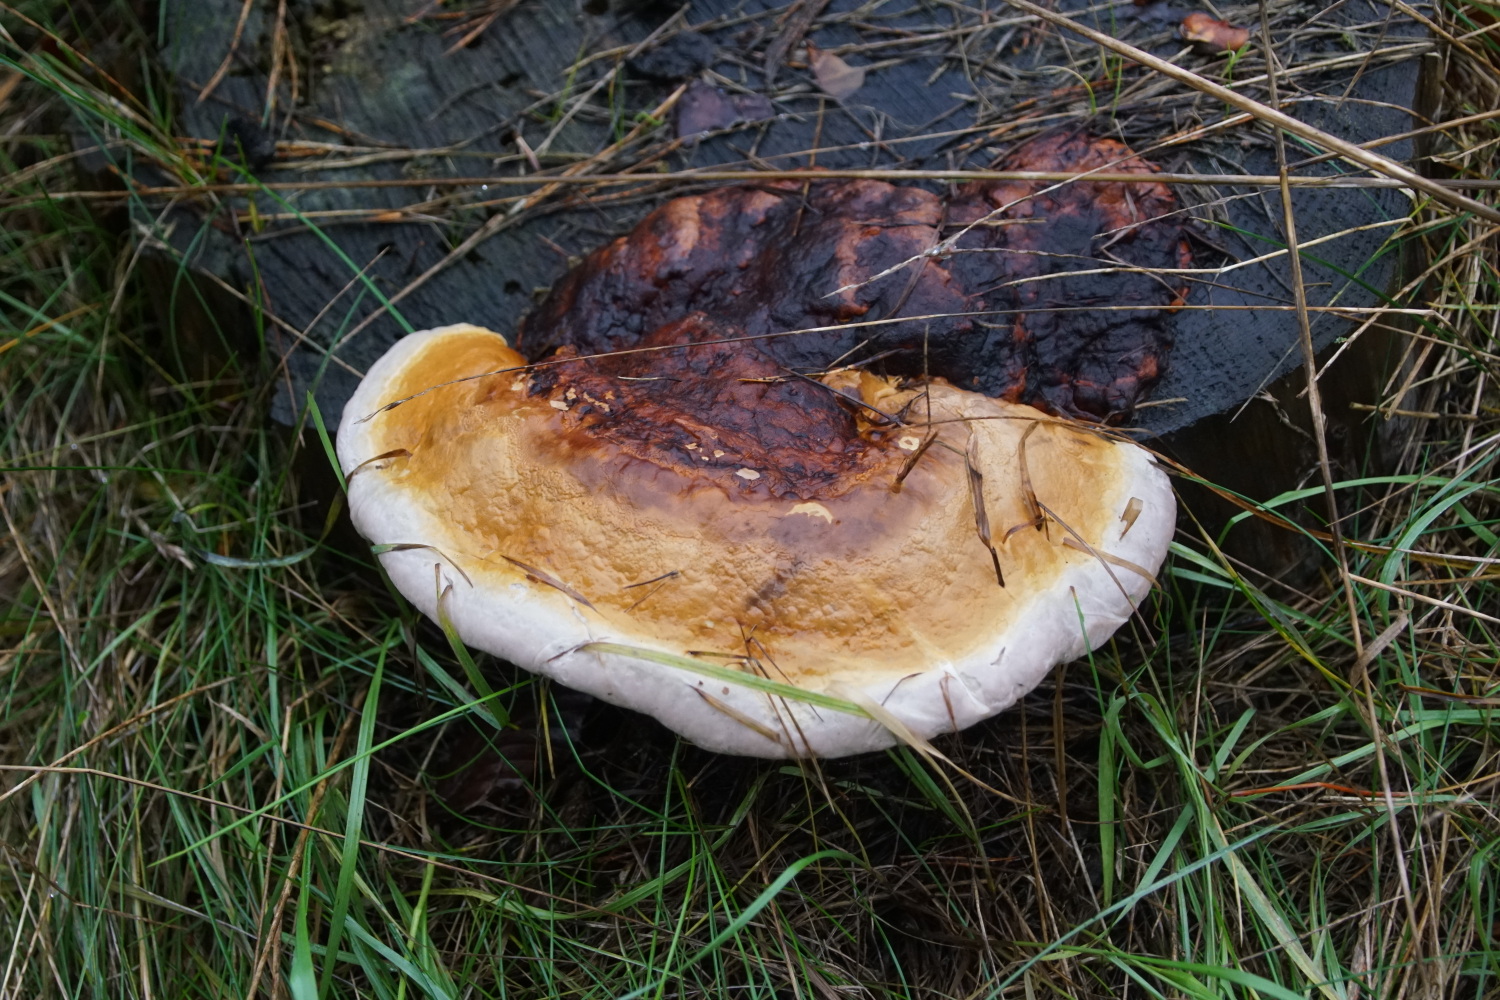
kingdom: Fungi
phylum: Basidiomycota
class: Agaricomycetes
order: Polyporales
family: Fomitopsidaceae
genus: Fomitopsis
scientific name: Fomitopsis pinicola
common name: randbæltet hovporesvamp
